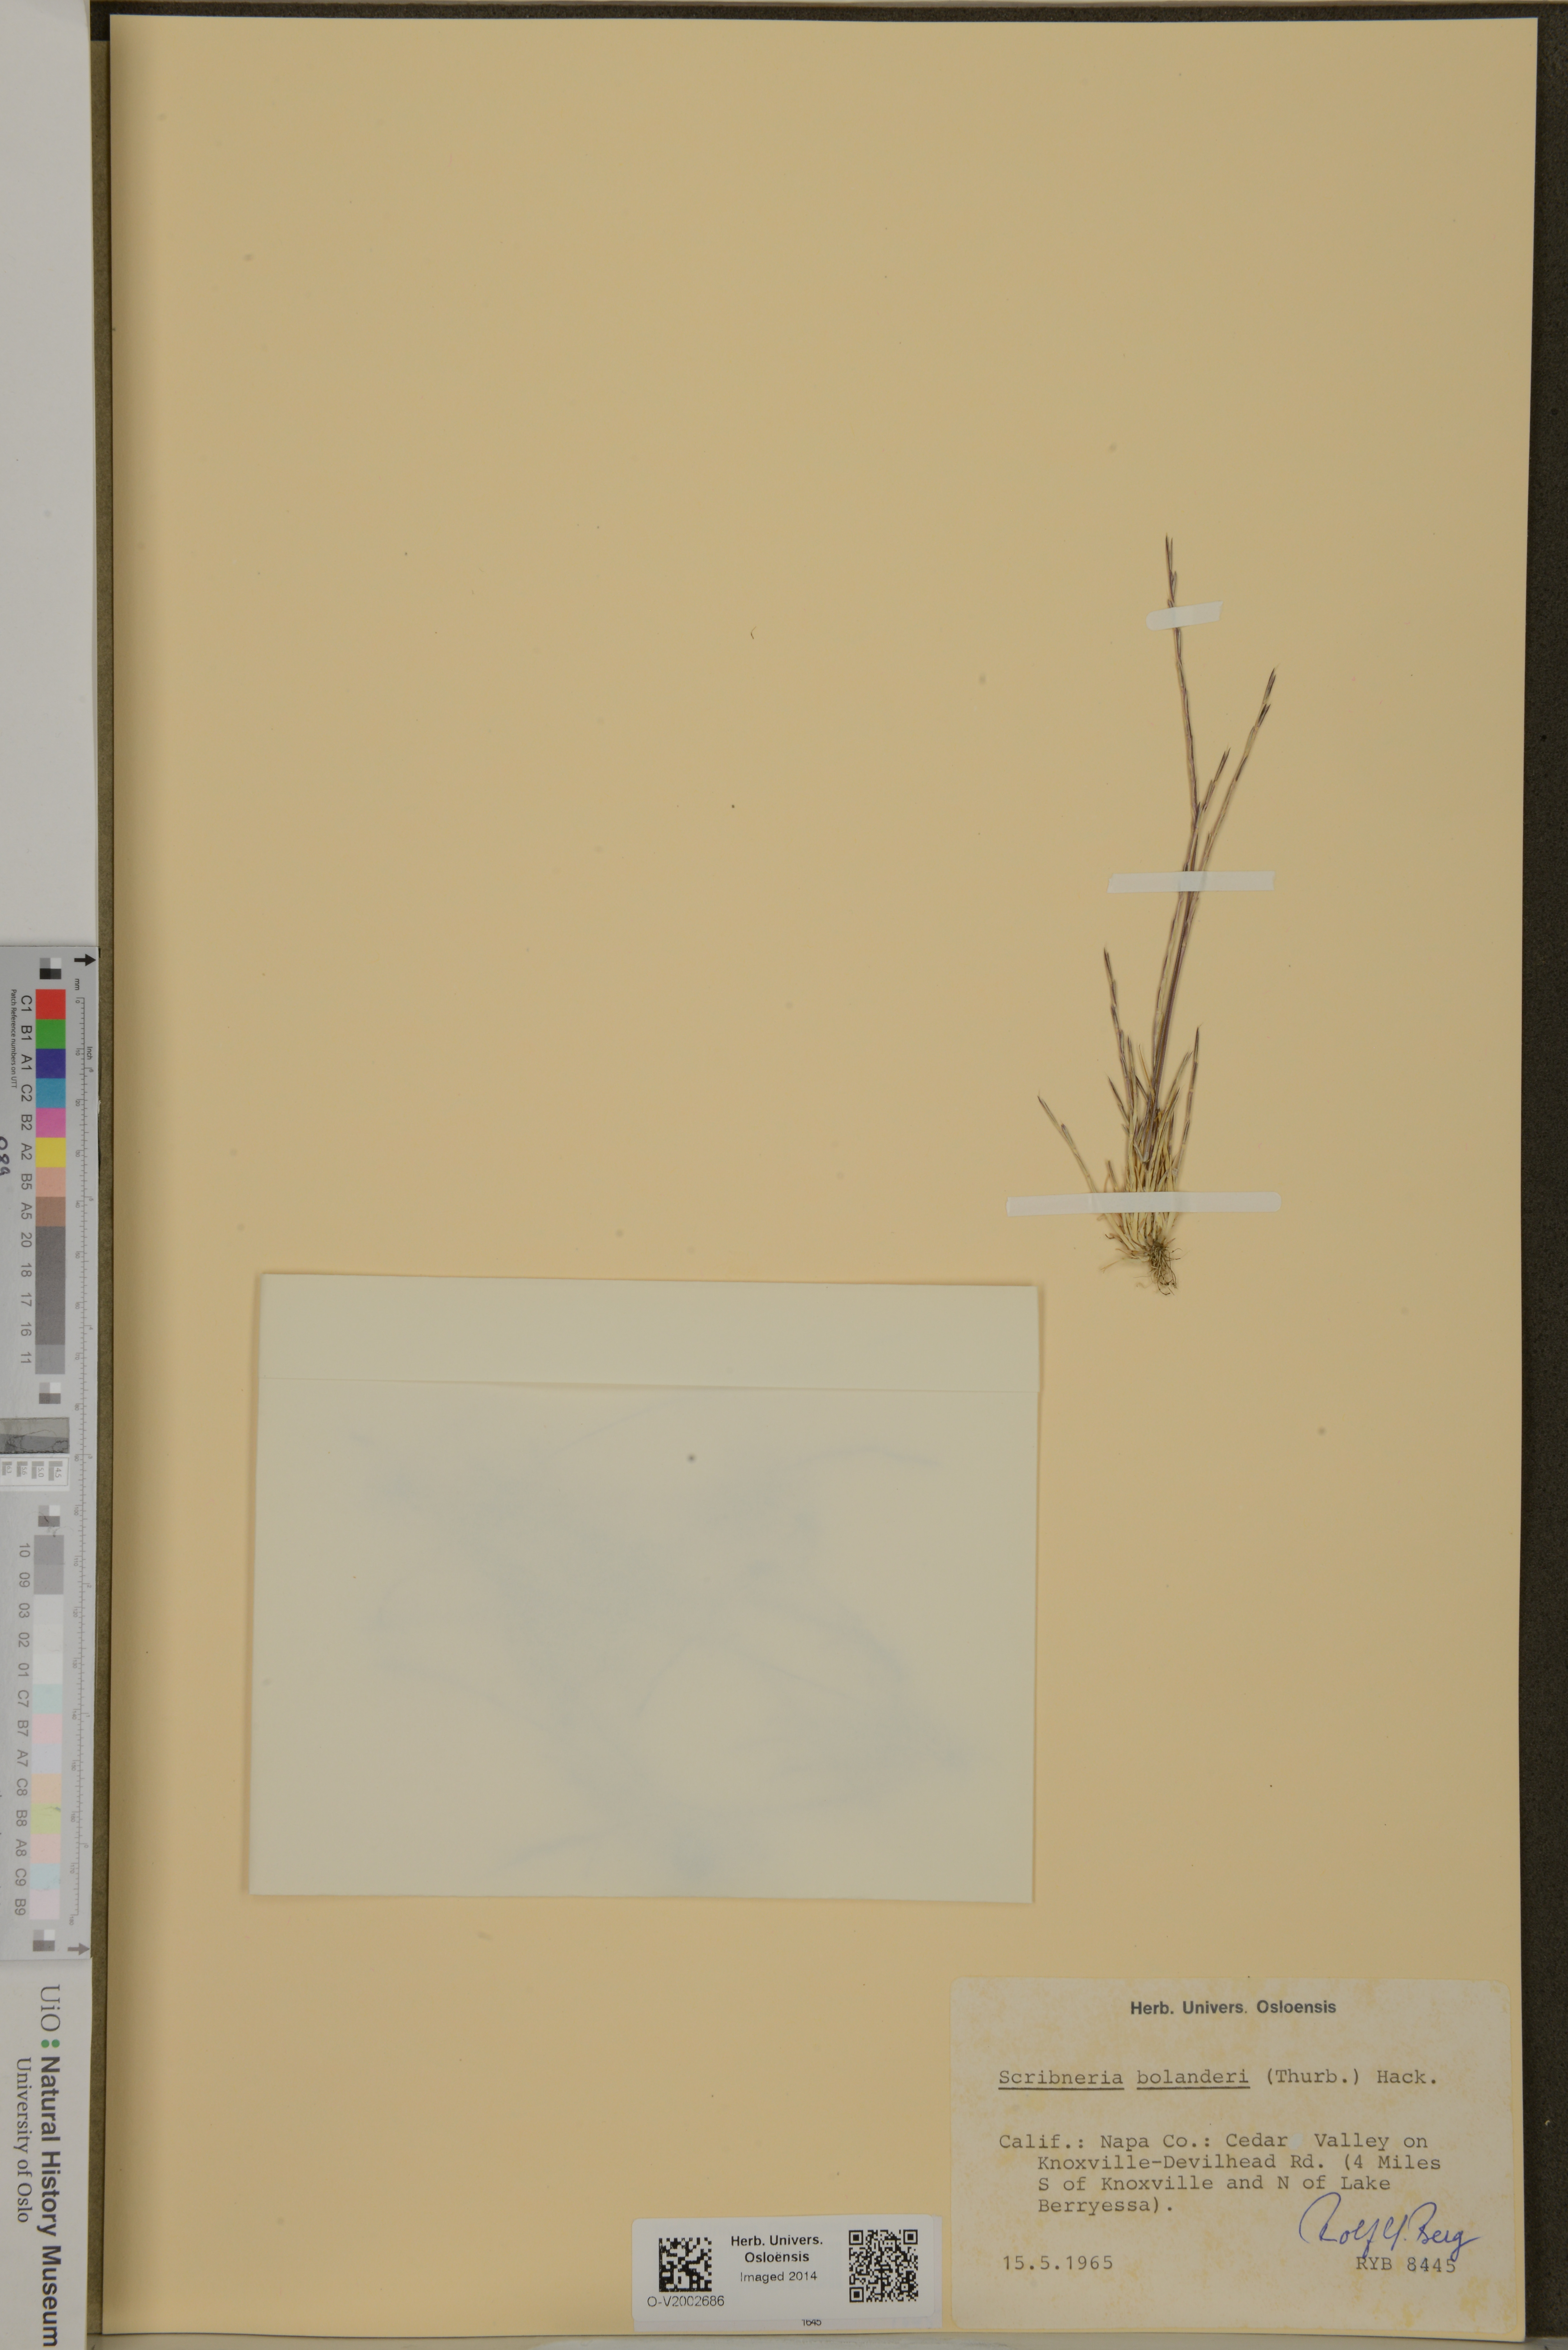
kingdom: Plantae
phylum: Tracheophyta
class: Liliopsida
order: Poales
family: Poaceae
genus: Deschampsia
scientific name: Deschampsia bolanderi
